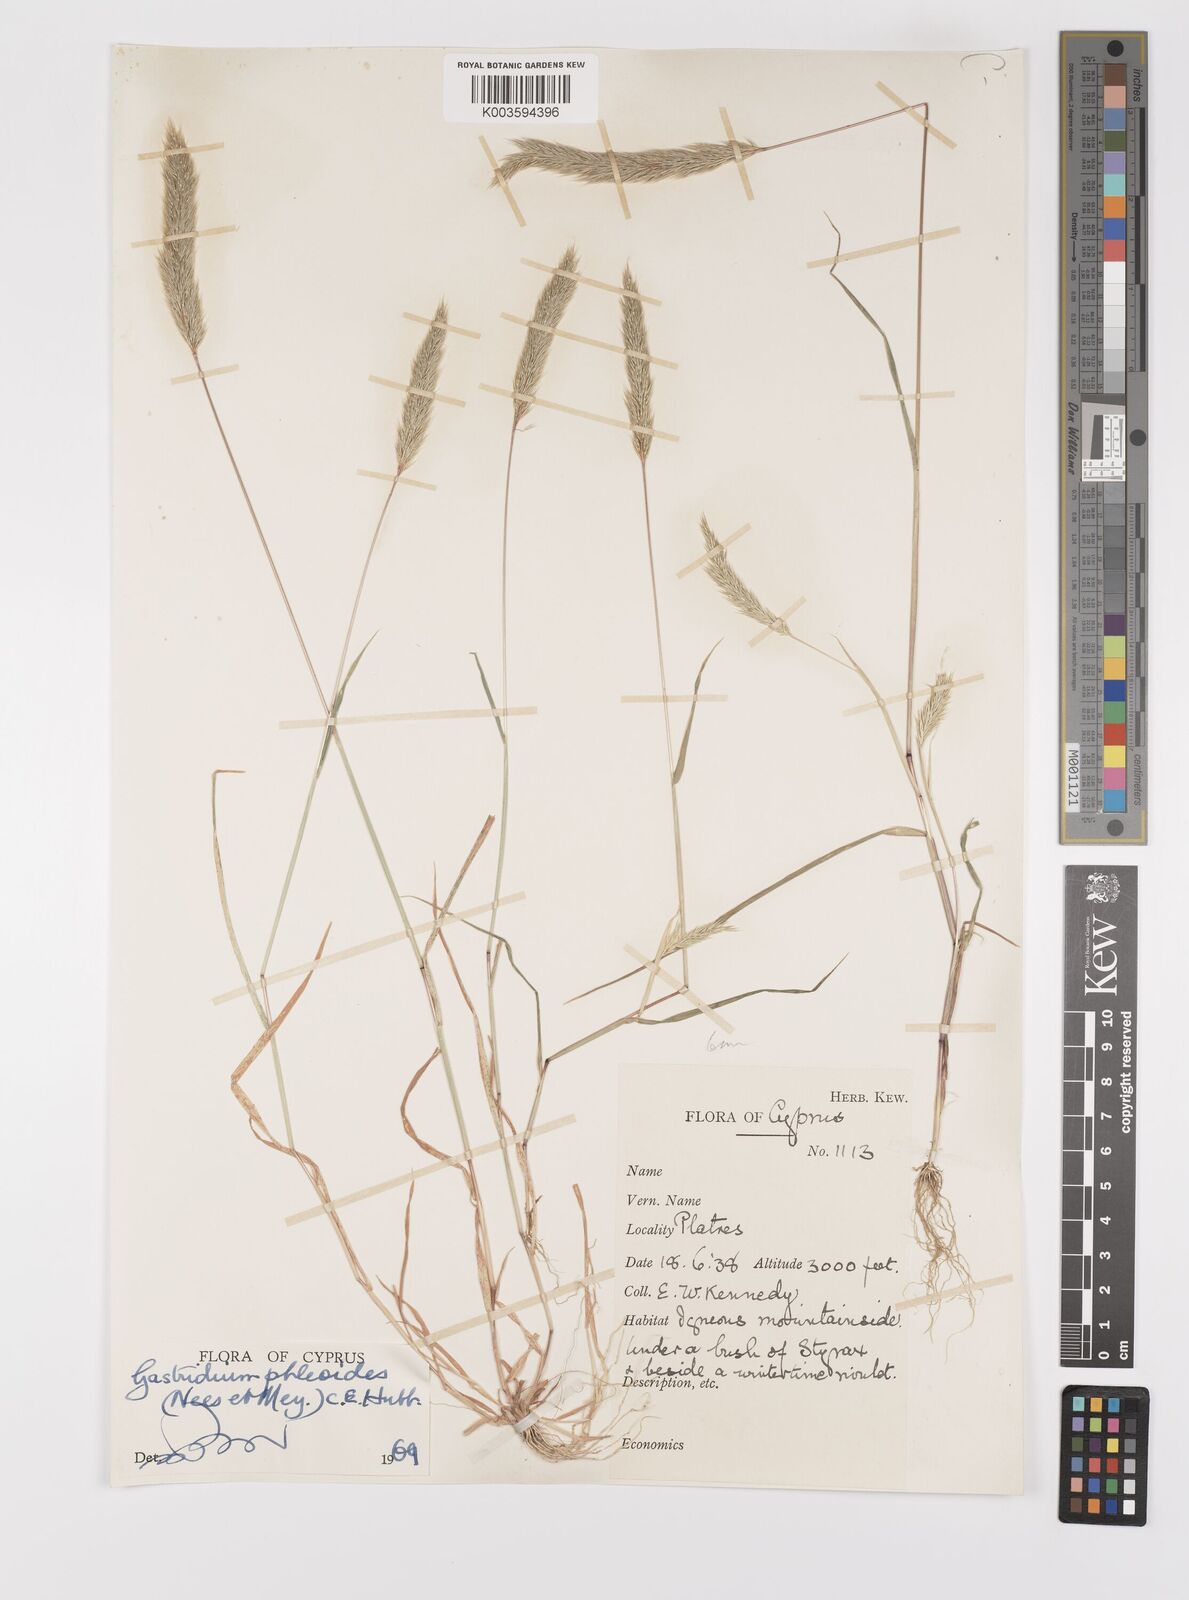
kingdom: Plantae
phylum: Tracheophyta
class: Liliopsida
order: Poales
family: Poaceae
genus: Gastridium
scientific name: Gastridium phleoides
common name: Nit grass
